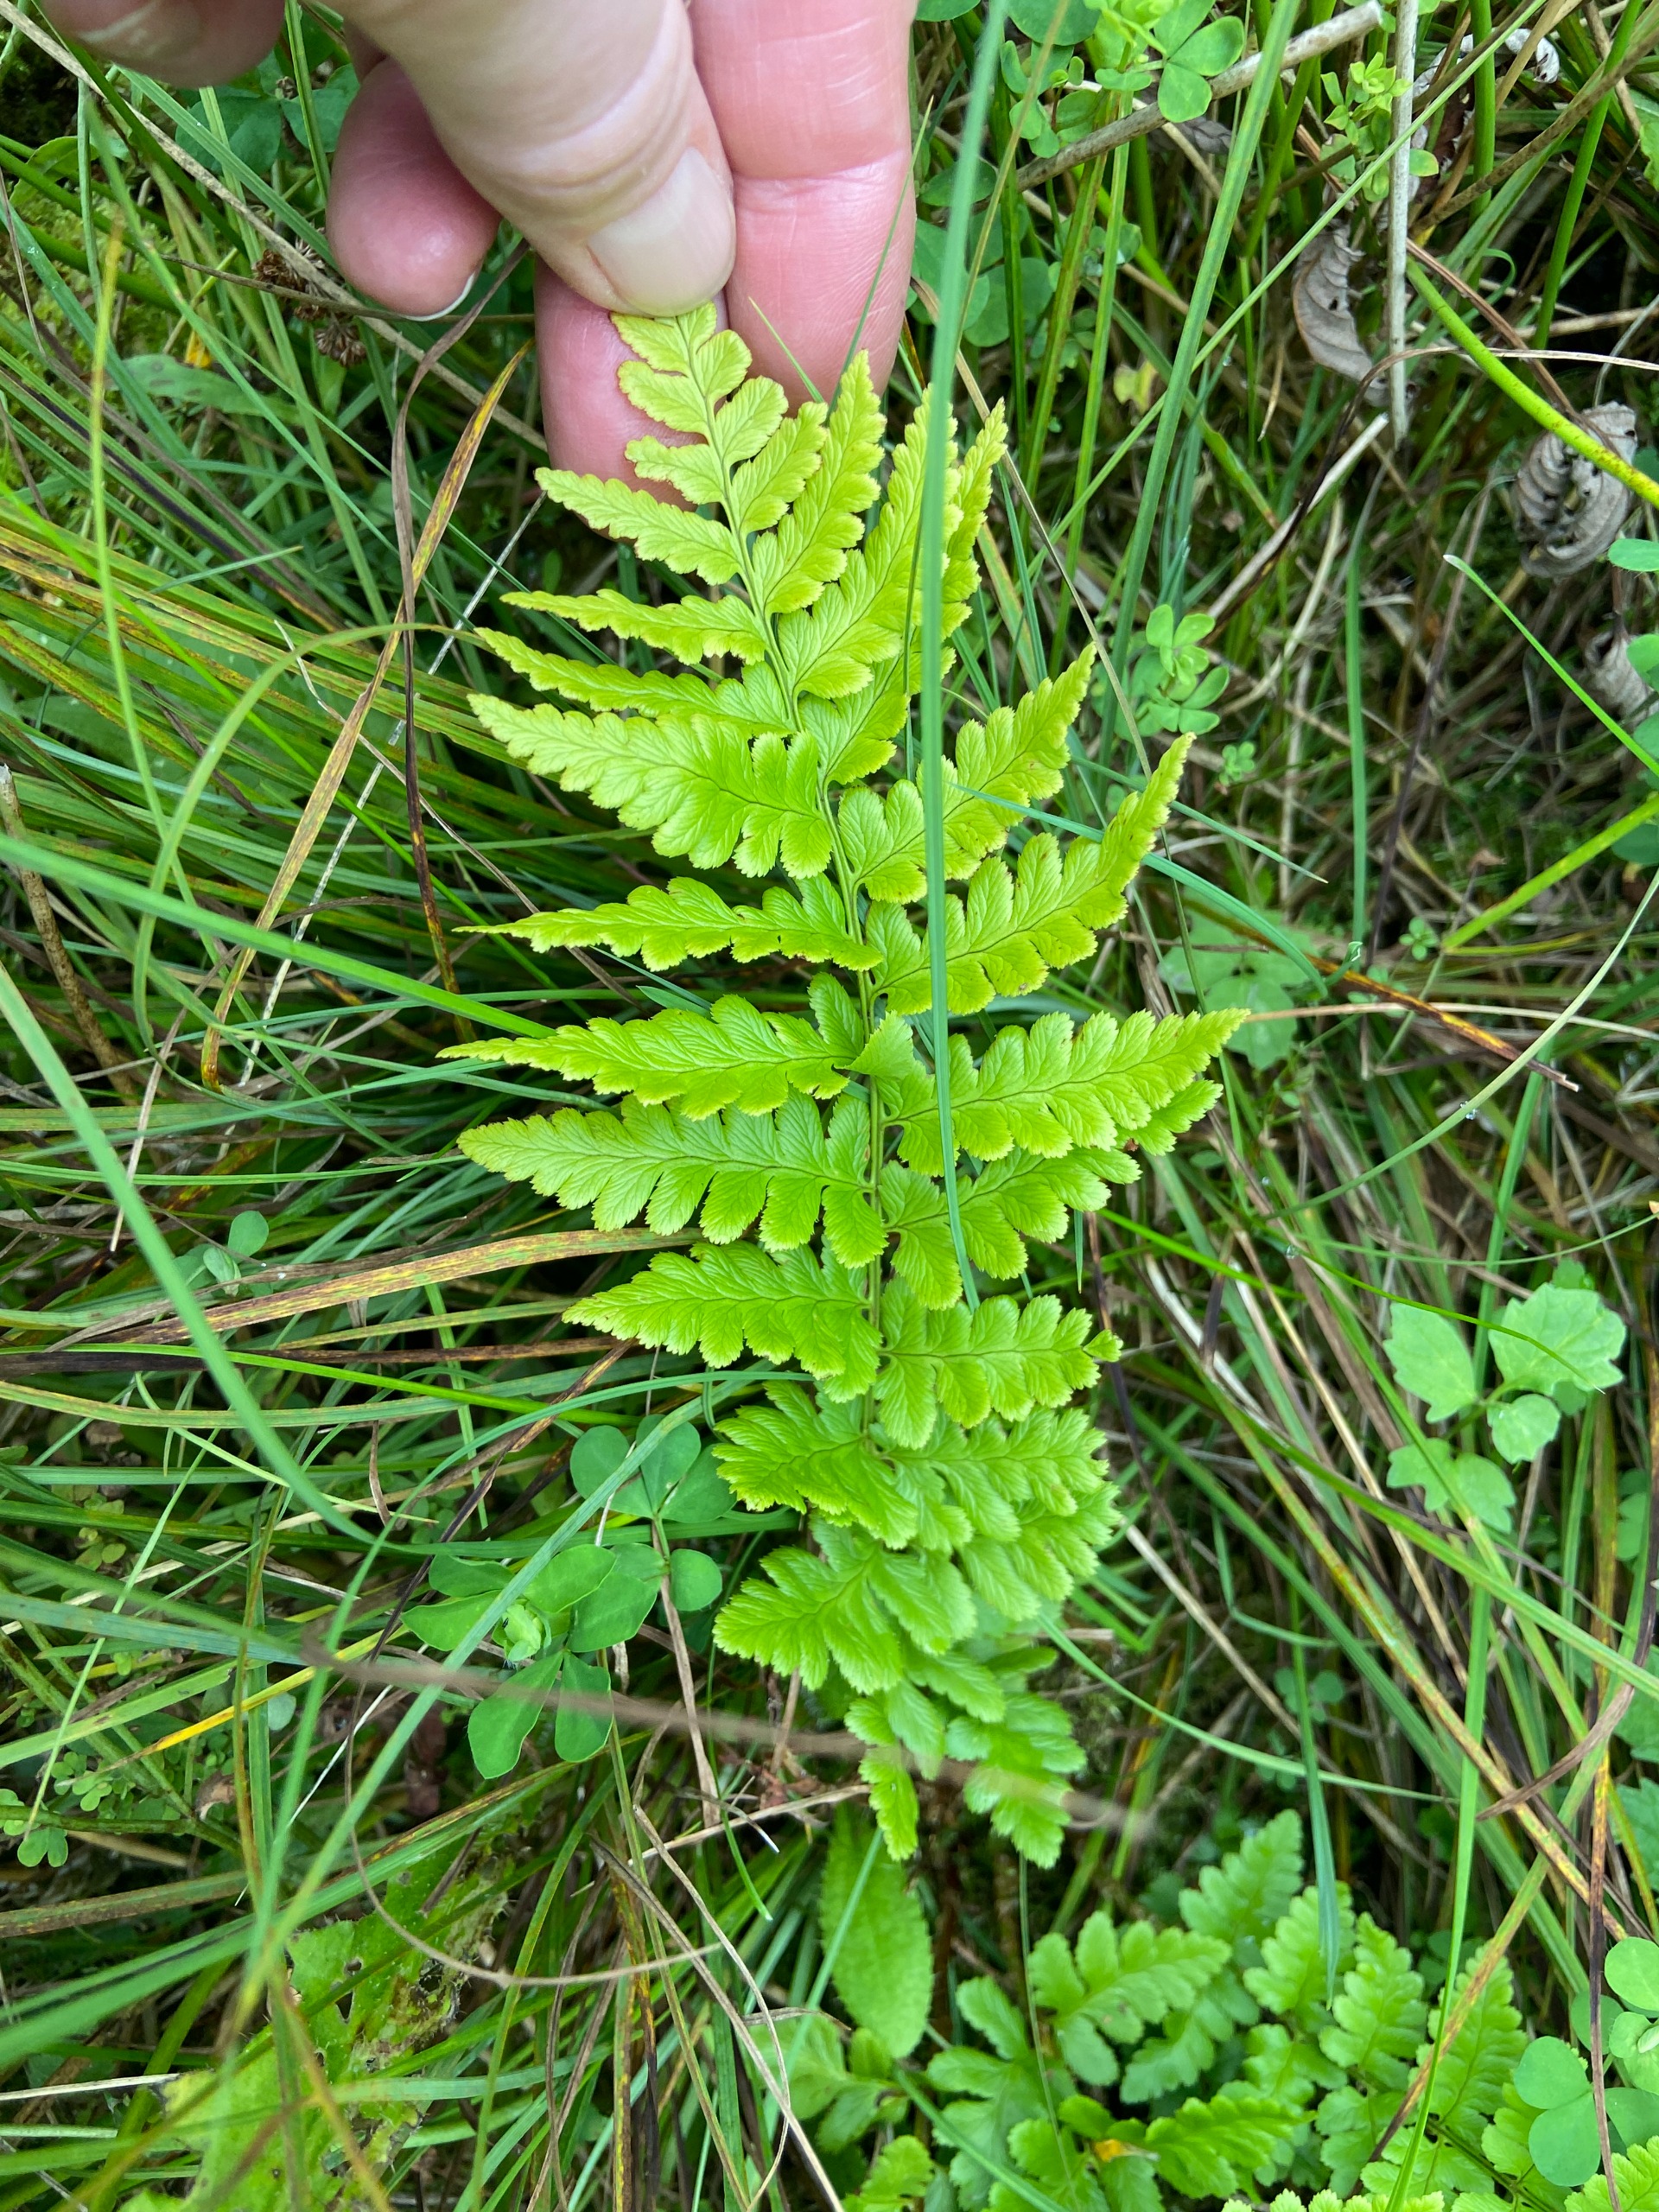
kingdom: Plantae
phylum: Tracheophyta
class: Polypodiopsida
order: Polypodiales
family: Dryopteridaceae
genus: Dryopteris
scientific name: Dryopteris cristata
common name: Butfinnet mangeløv
